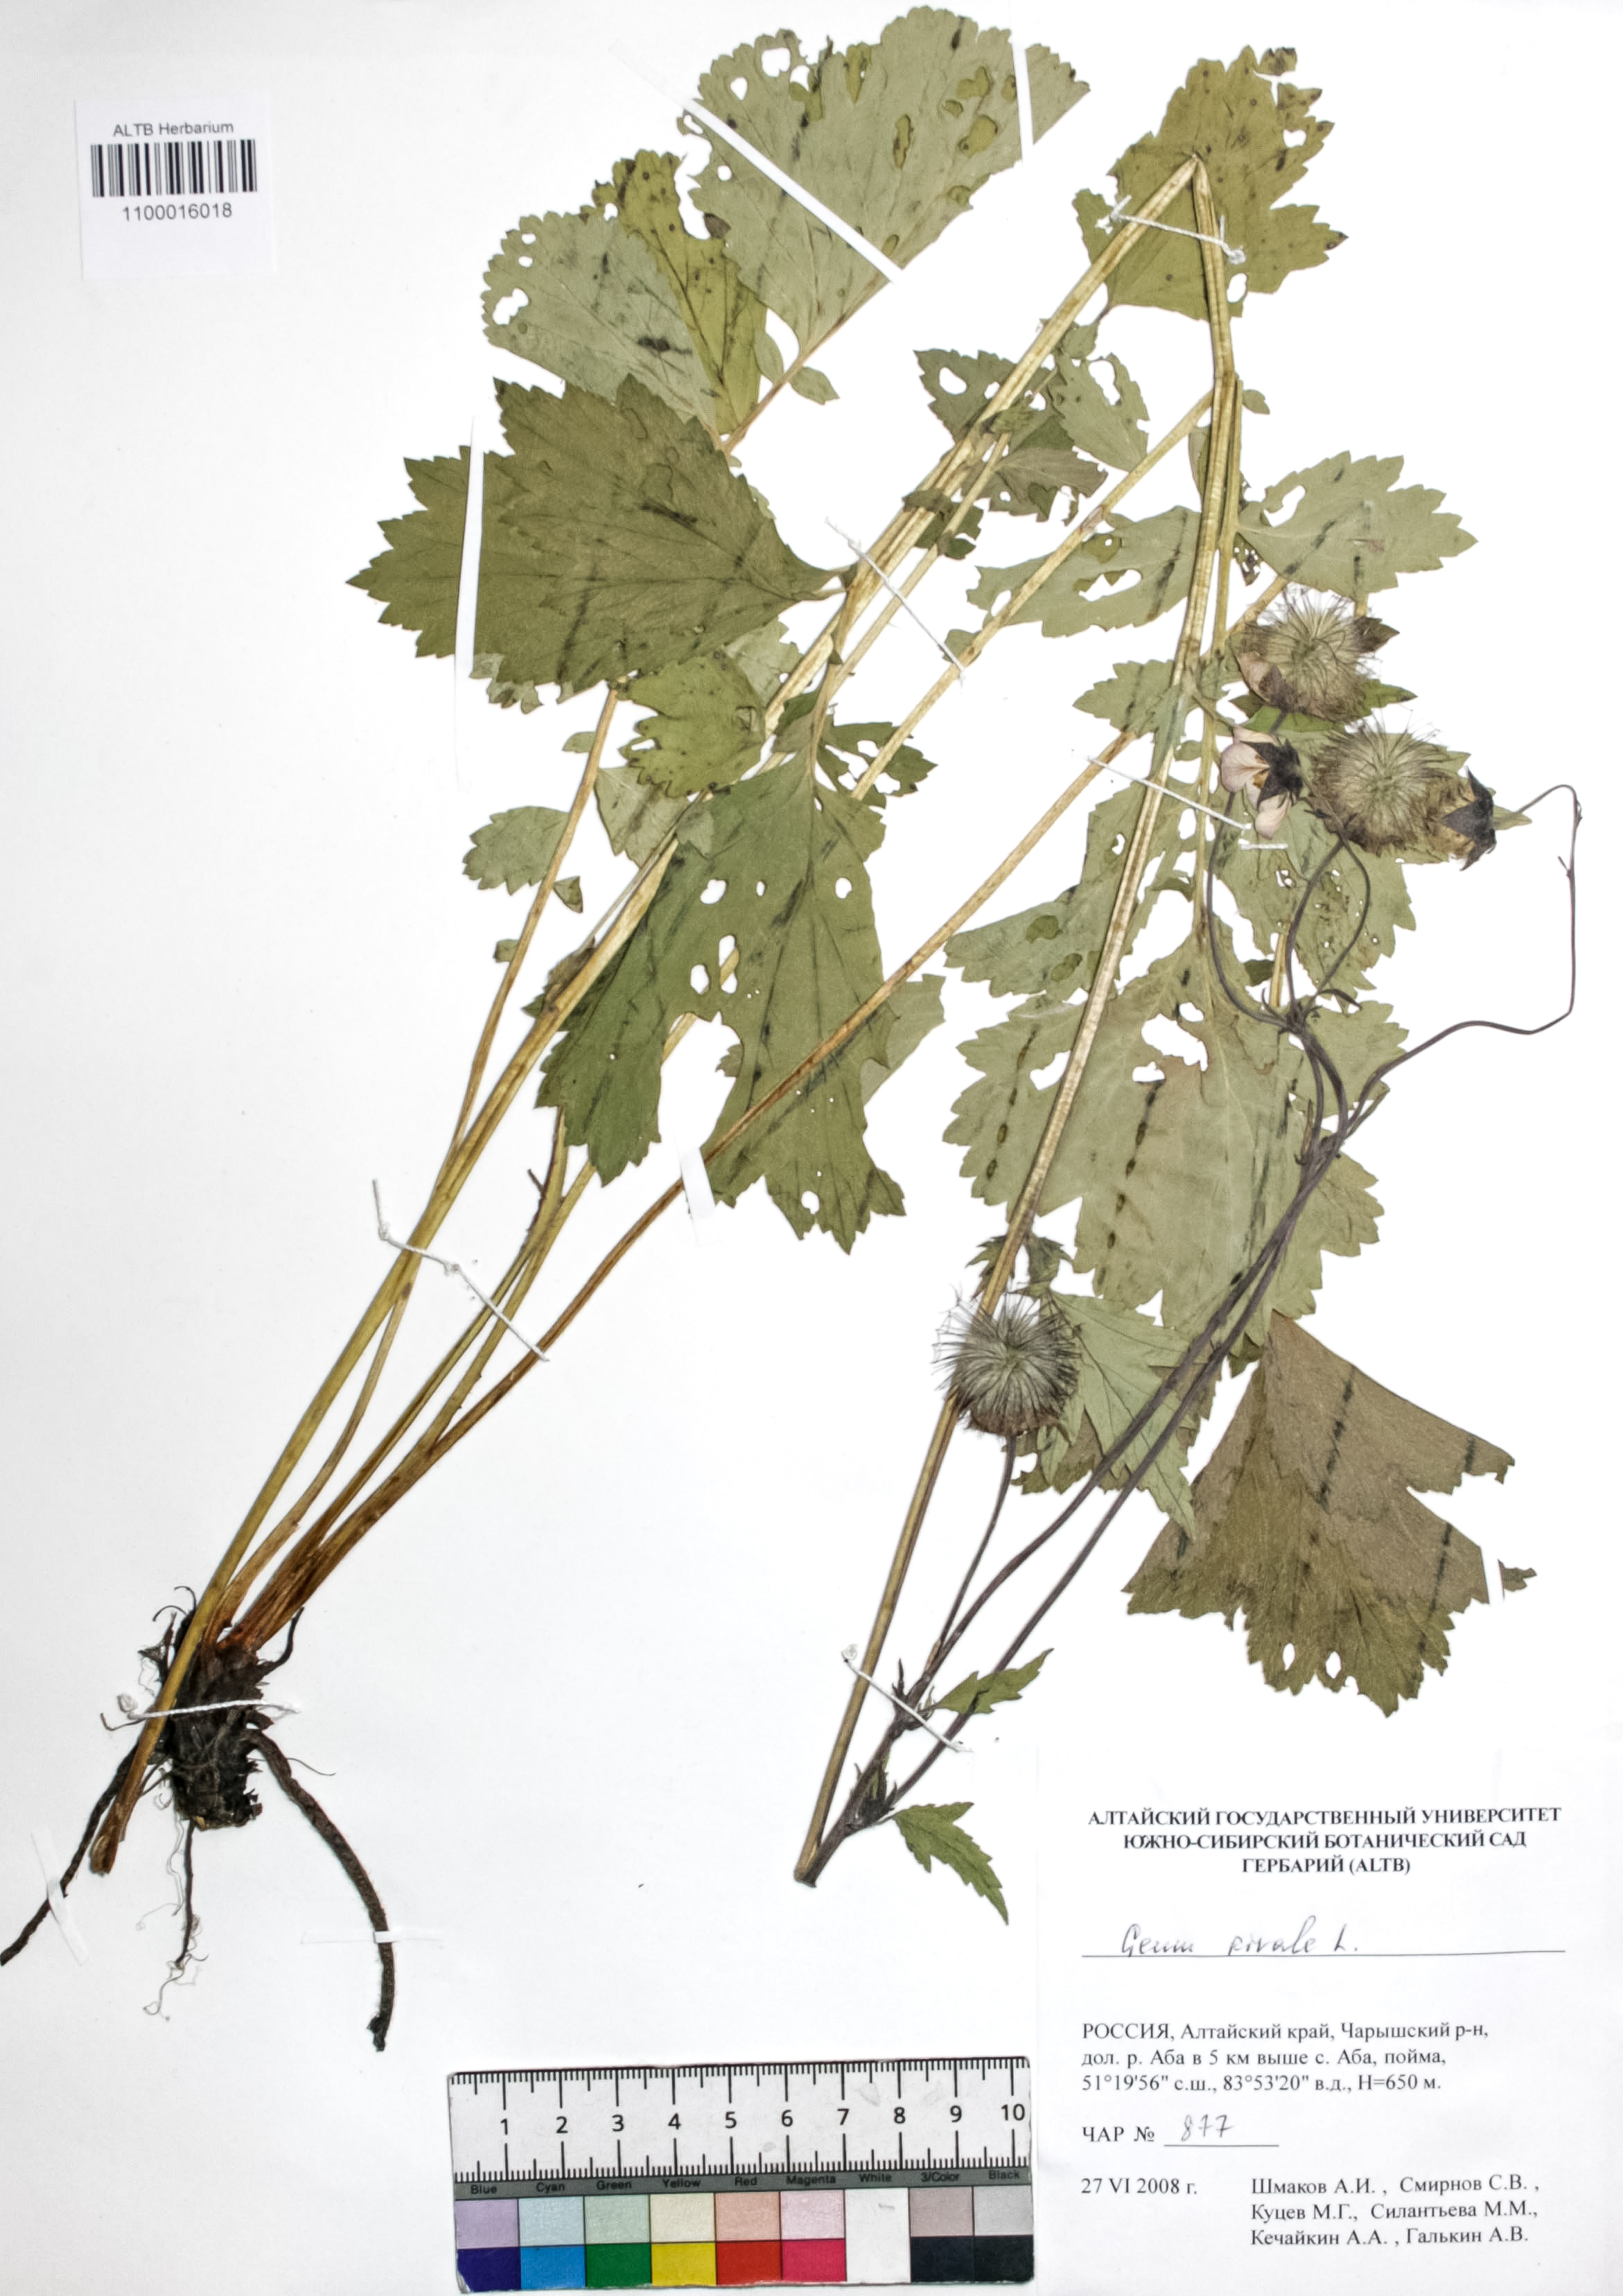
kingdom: Plantae
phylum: Tracheophyta
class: Magnoliopsida
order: Rosales
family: Rosaceae
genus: Geum
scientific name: Geum rivale
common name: Water avens
